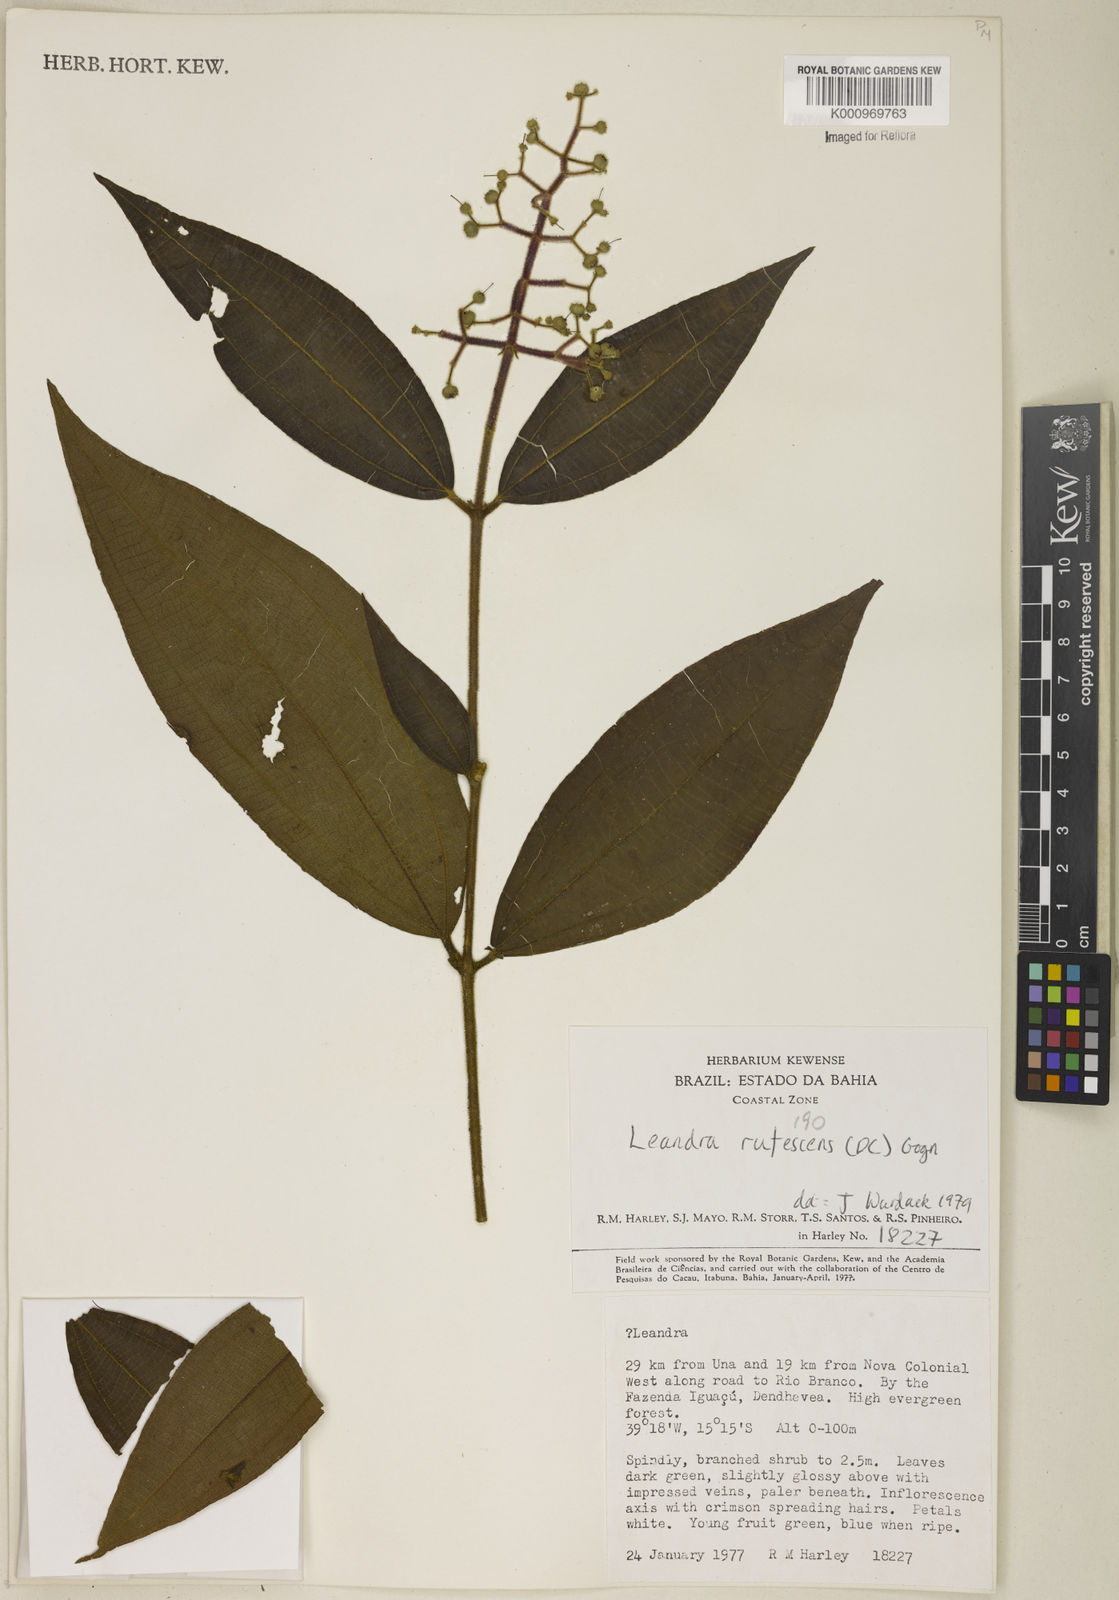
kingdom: Plantae
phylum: Tracheophyta
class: Magnoliopsida
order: Myrtales
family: Melastomataceae
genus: Miconia
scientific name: Miconia asperiuscula
